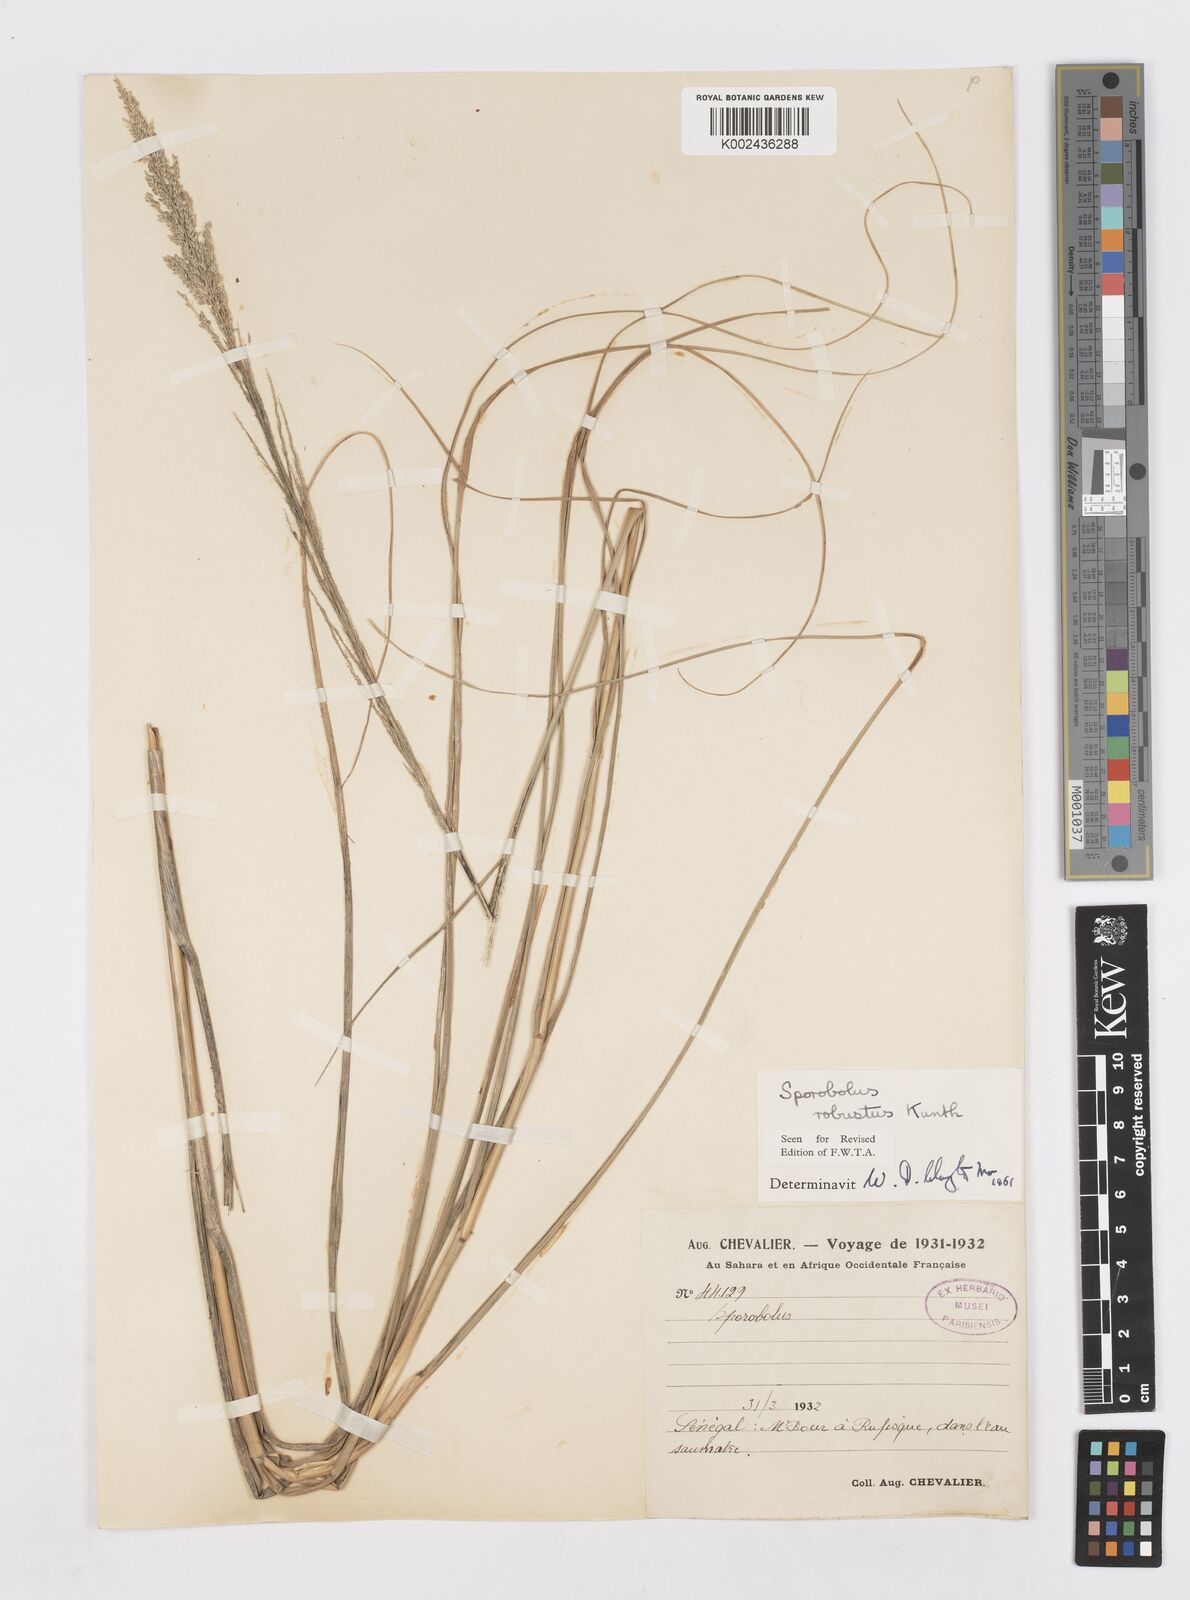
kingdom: Plantae
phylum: Tracheophyta
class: Liliopsida
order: Poales
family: Poaceae
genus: Sporobolus
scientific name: Sporobolus robustus
